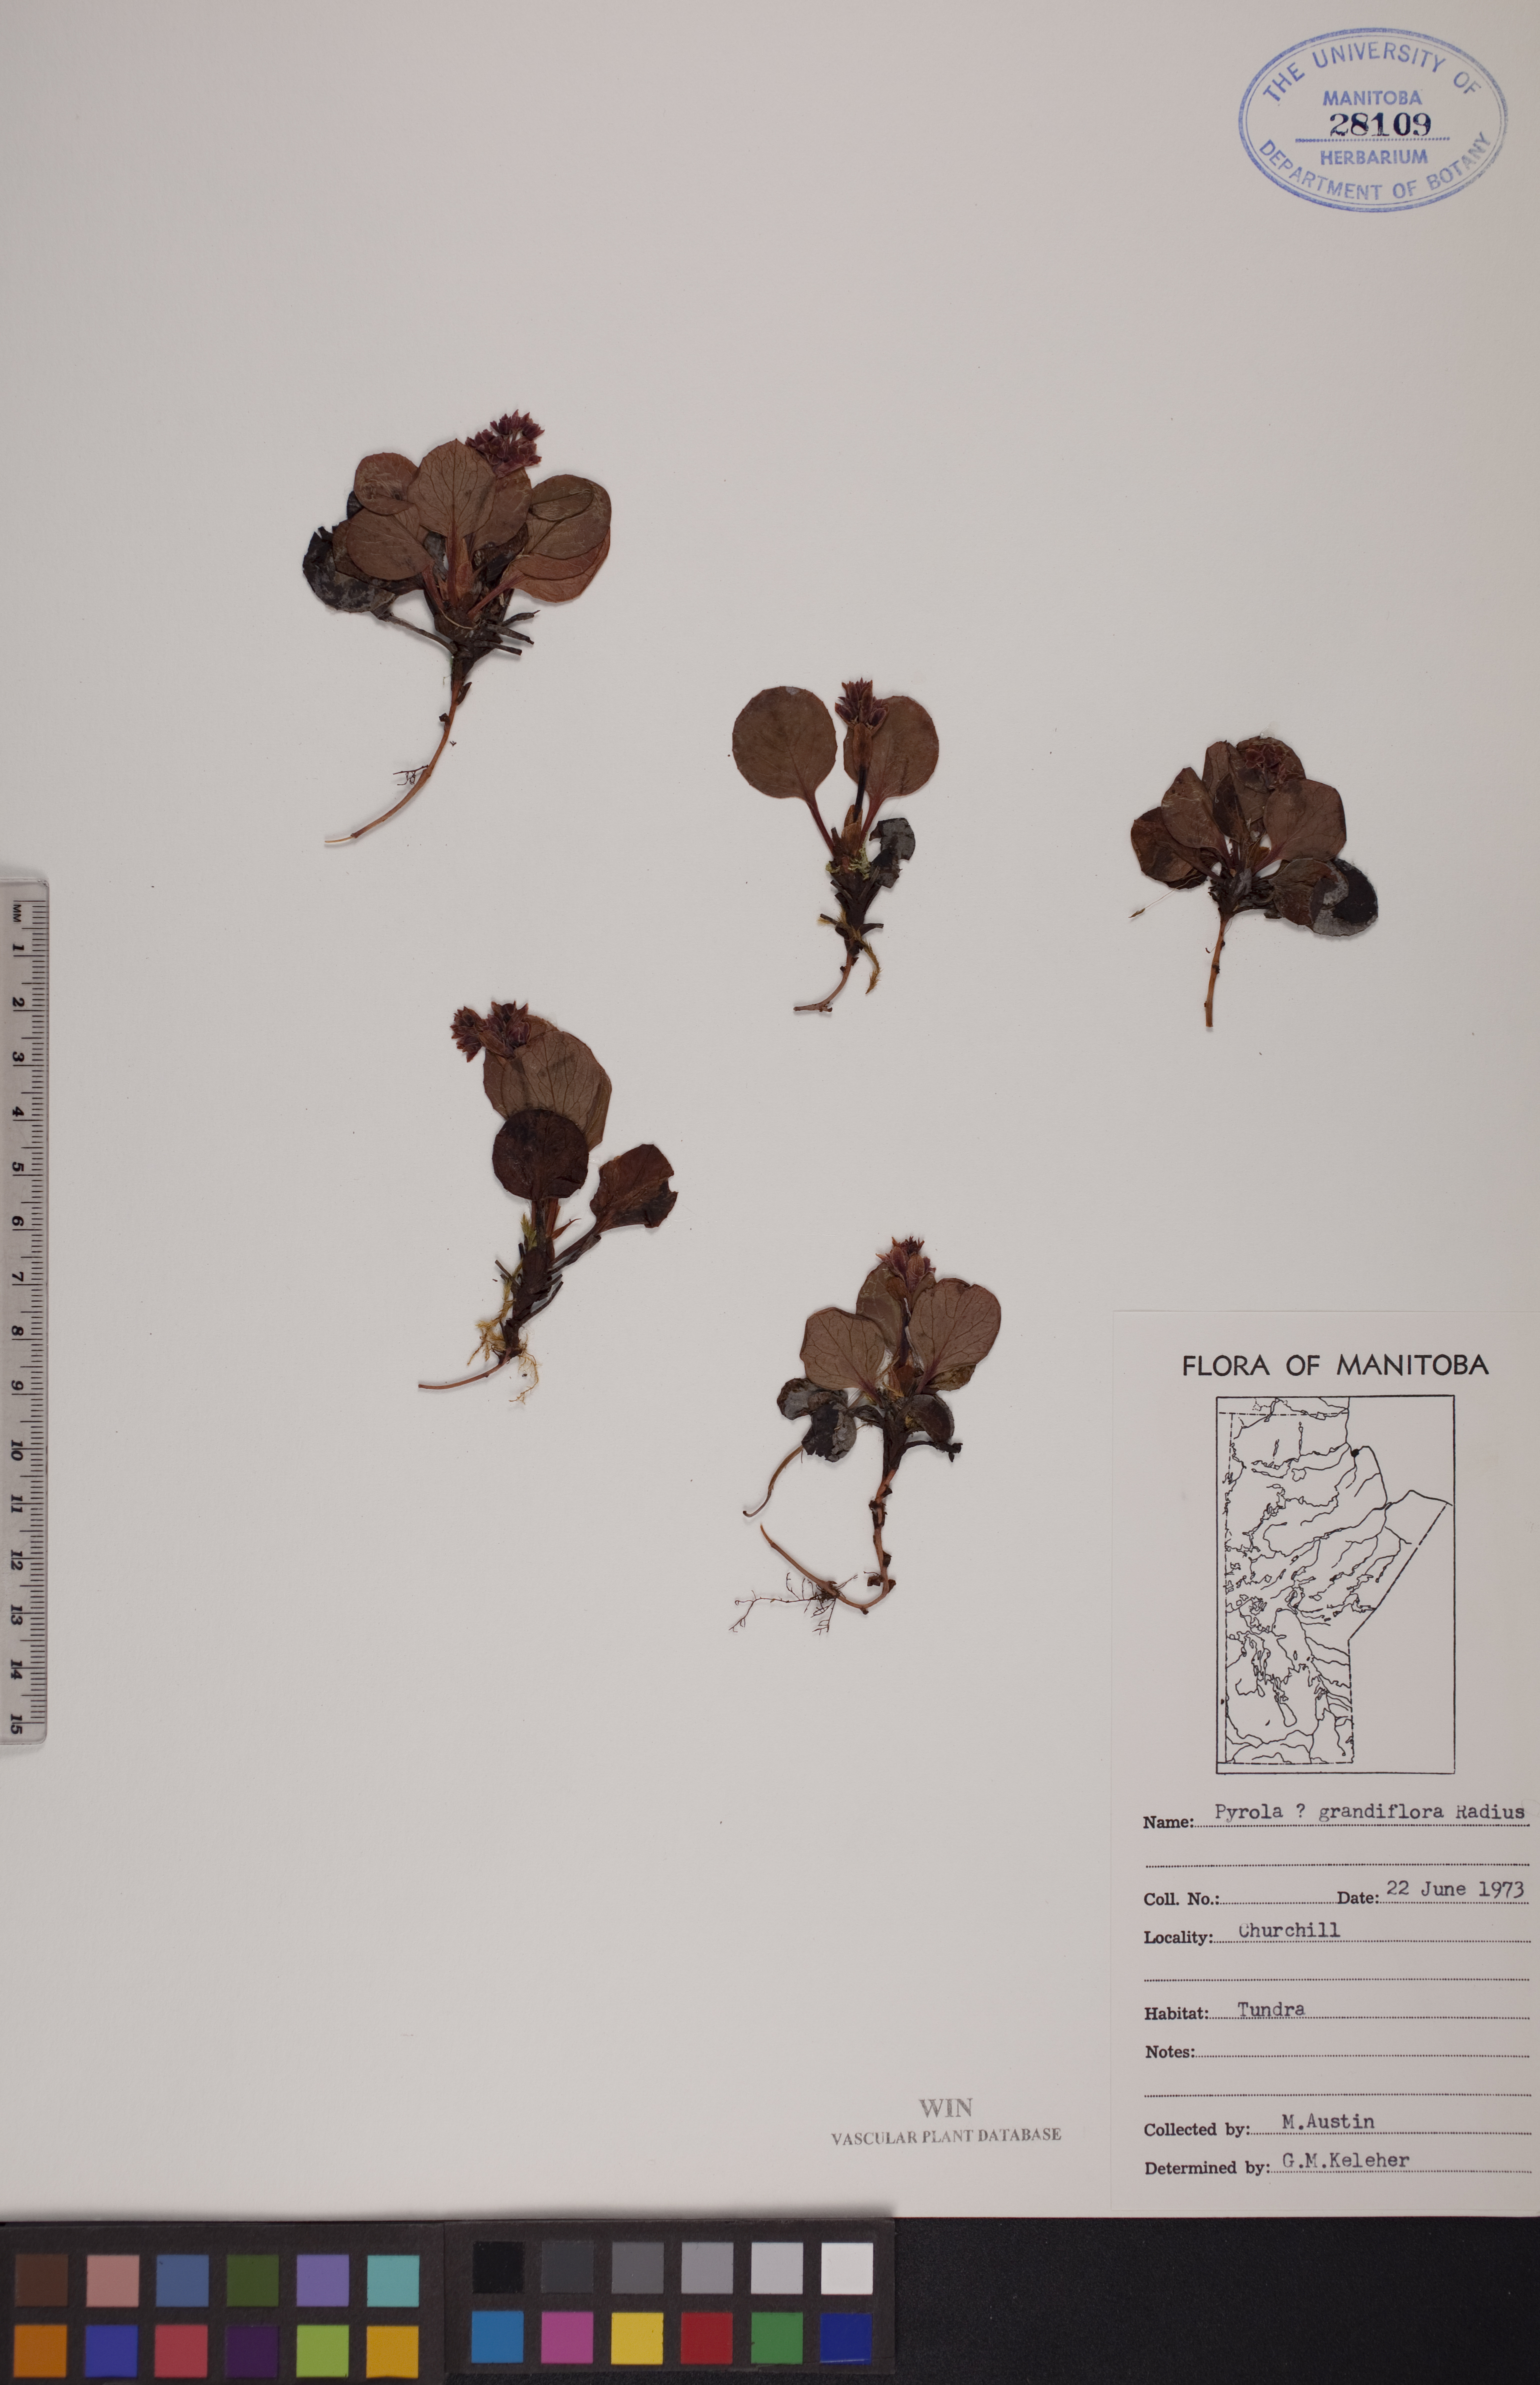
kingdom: Plantae
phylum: Tracheophyta
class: Magnoliopsida
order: Ericales
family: Ericaceae
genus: Pyrola
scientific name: Pyrola grandiflora
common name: Arctic pyrola
